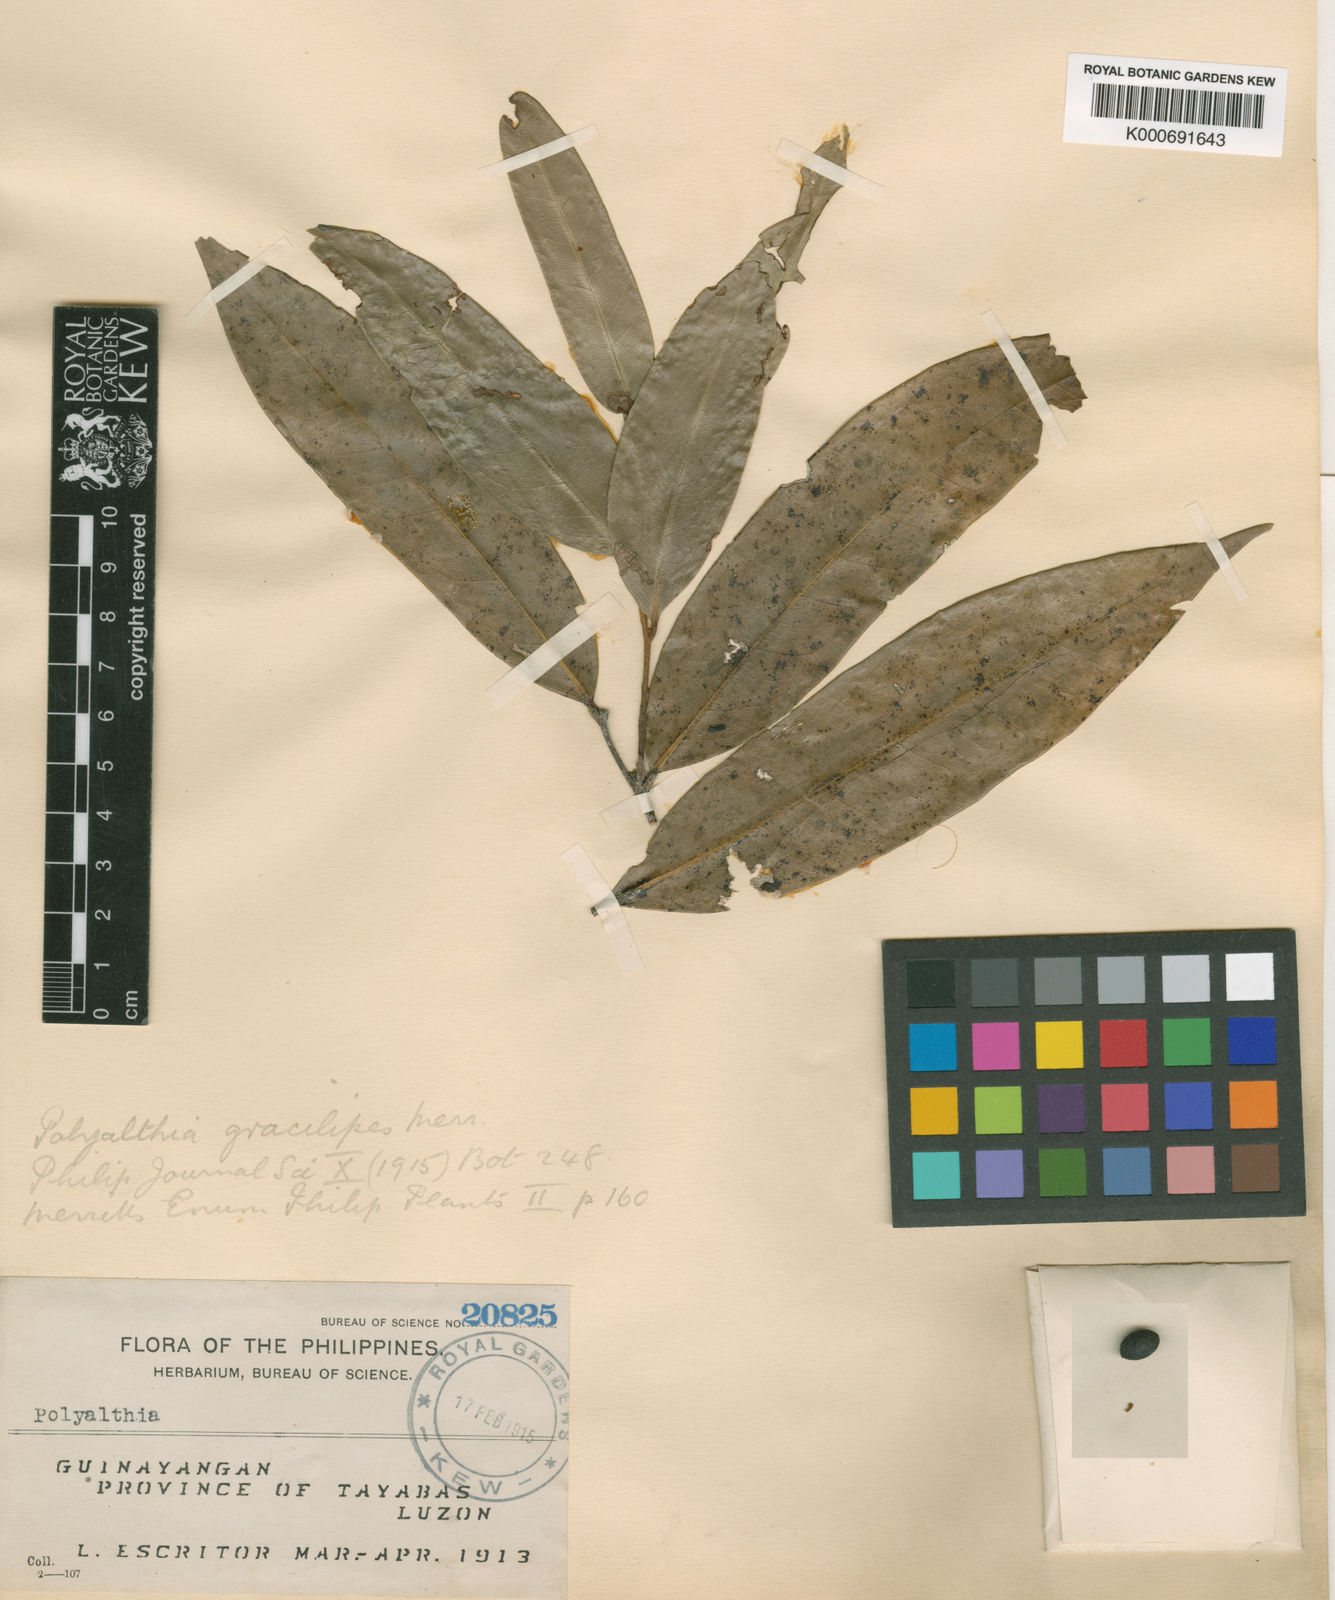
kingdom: Plantae
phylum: Tracheophyta
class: Magnoliopsida
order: Magnoliales
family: Annonaceae
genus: Polyalthia
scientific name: Polyalthia gracilipes
